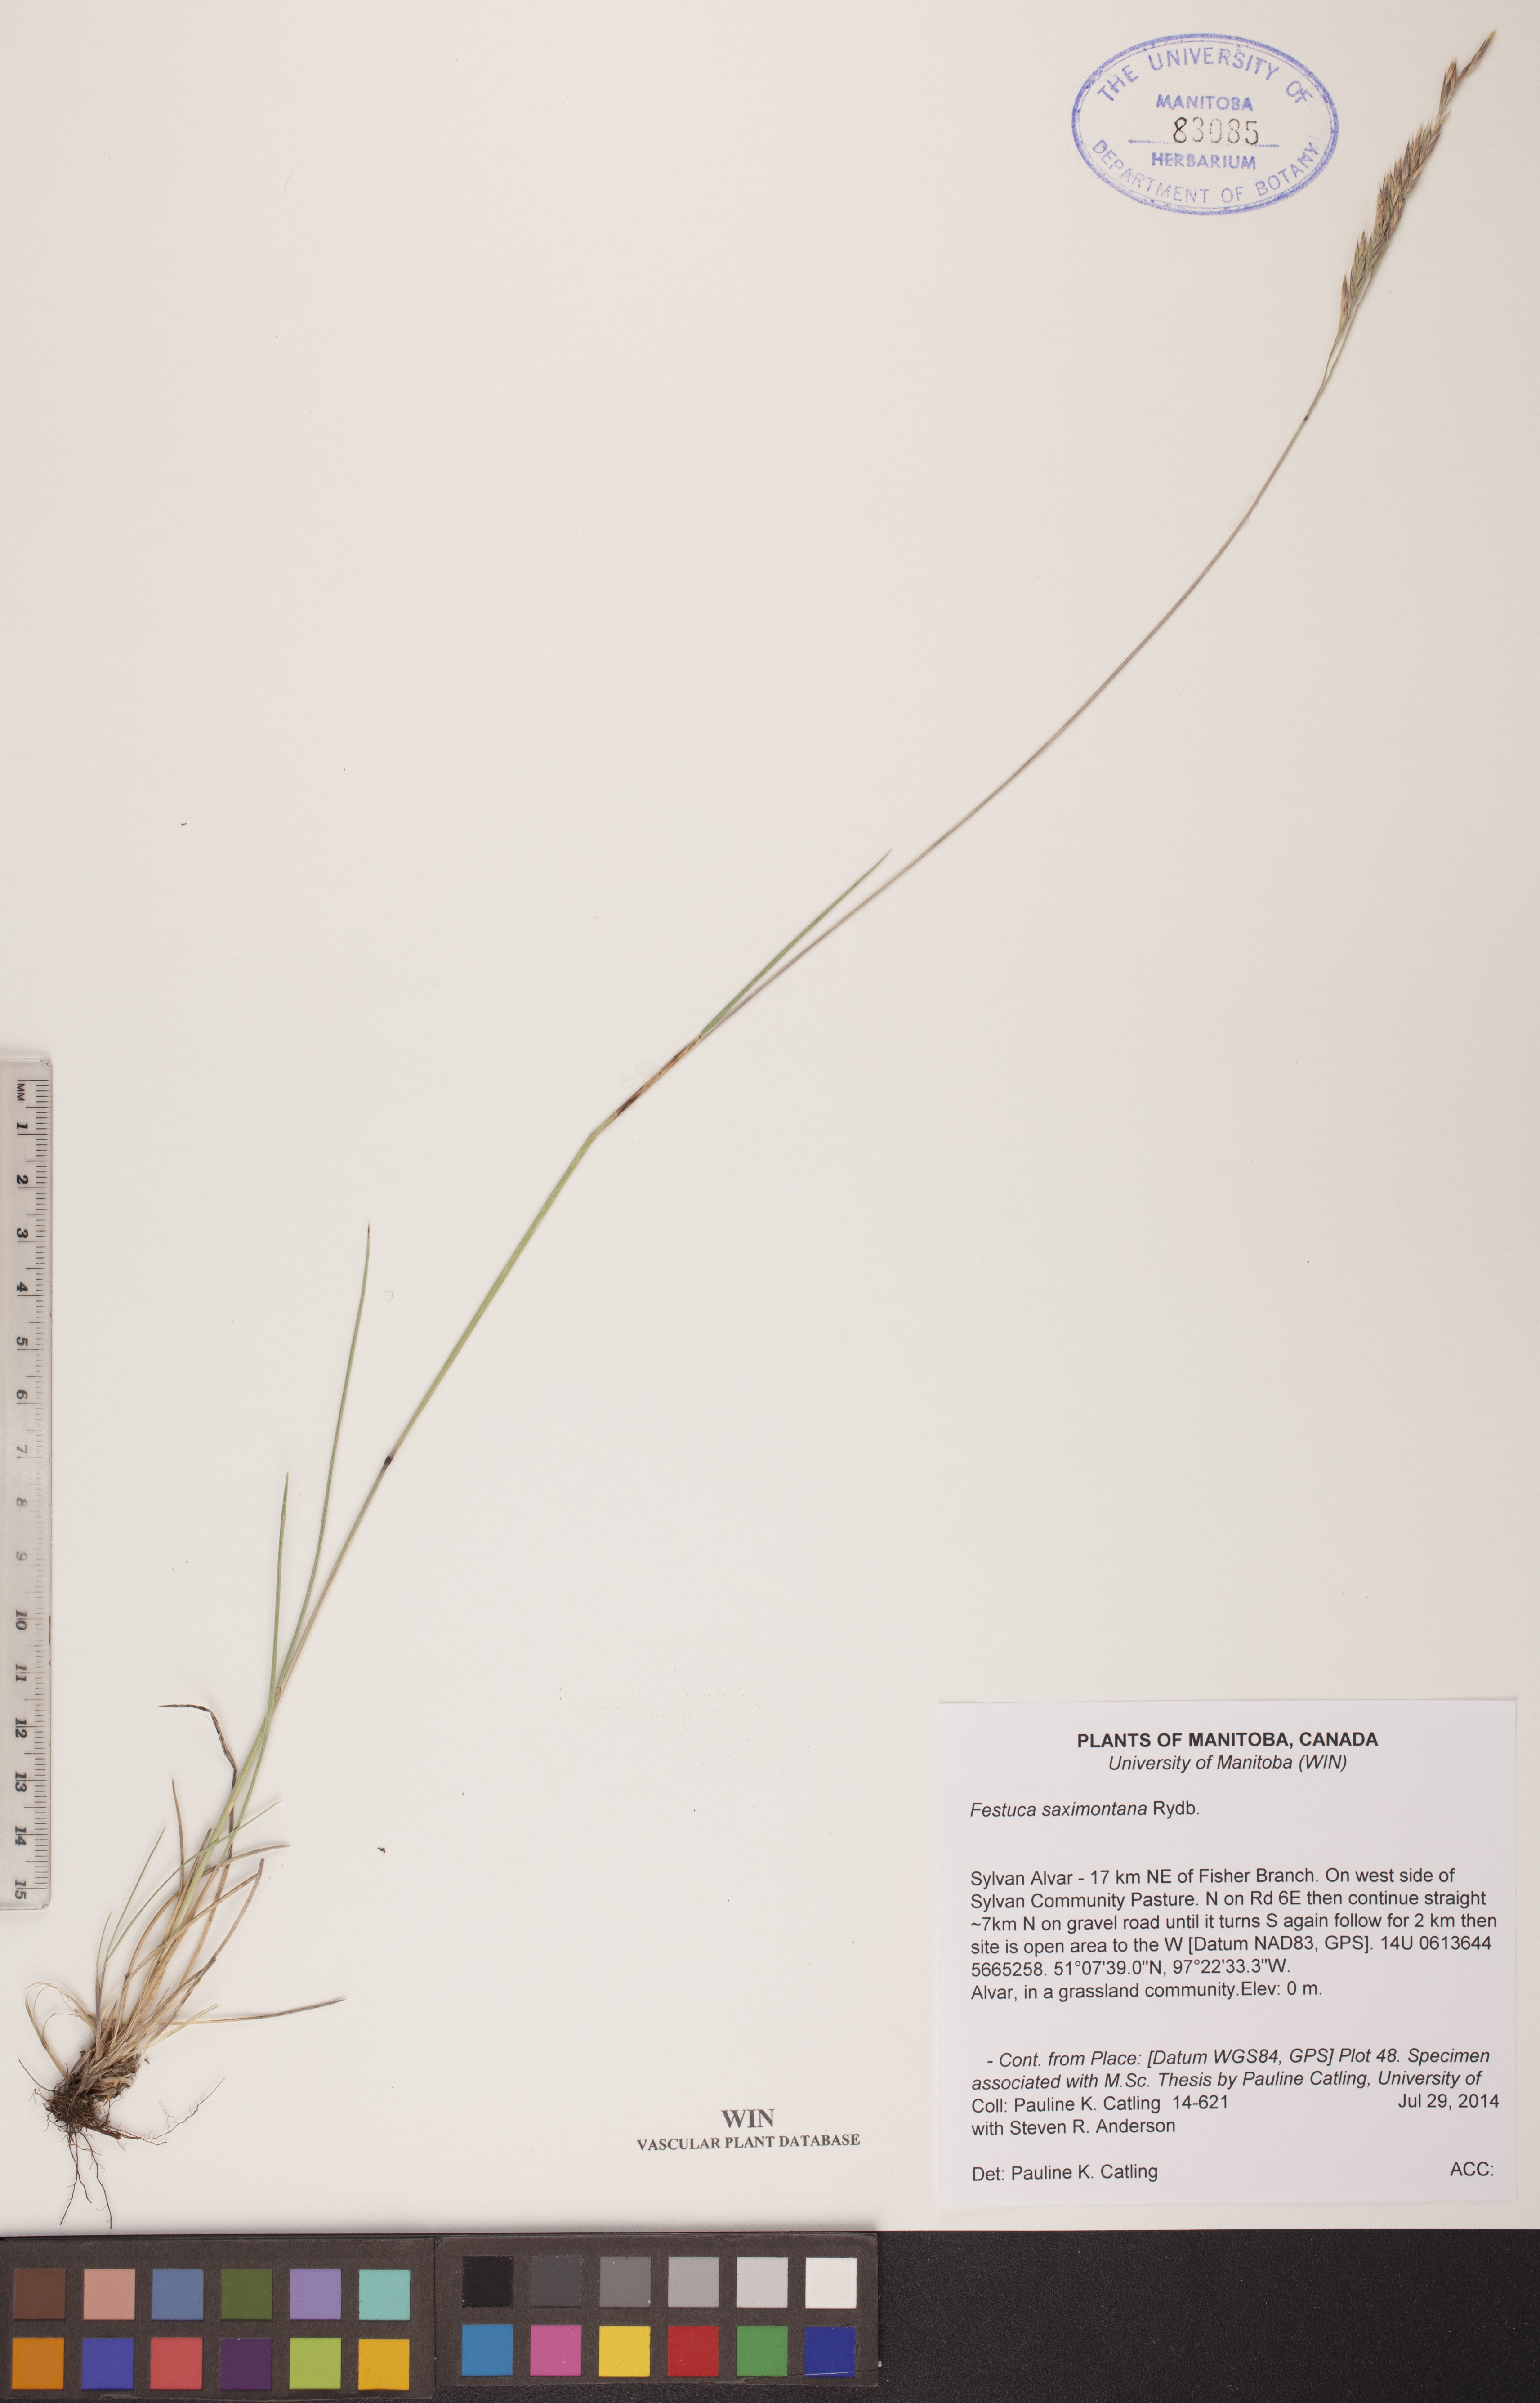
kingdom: Plantae
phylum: Tracheophyta
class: Liliopsida
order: Poales
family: Poaceae
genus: Festuca
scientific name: Festuca saximontana
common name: Mountain fescue
